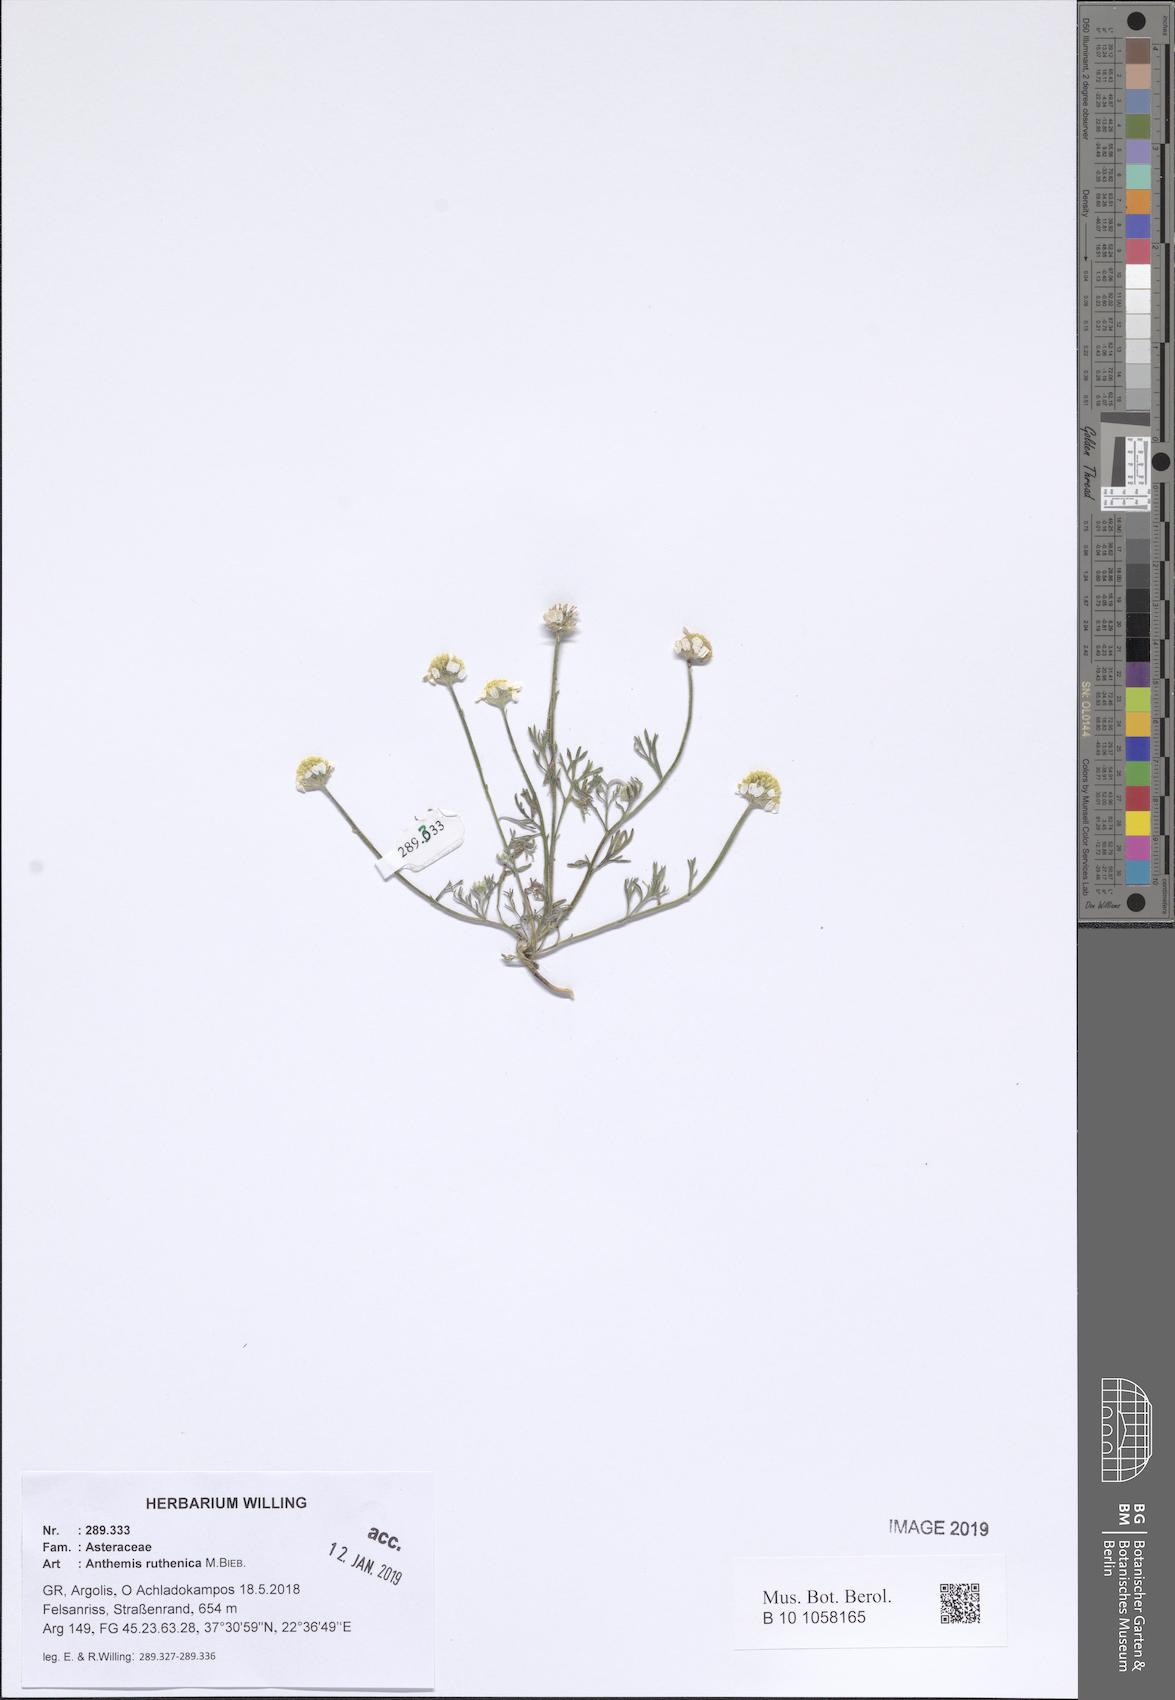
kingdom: Plantae
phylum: Tracheophyta
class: Magnoliopsida
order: Asterales
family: Asteraceae
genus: Anthemis
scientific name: Anthemis ruthenica
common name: Eastern chamomile
